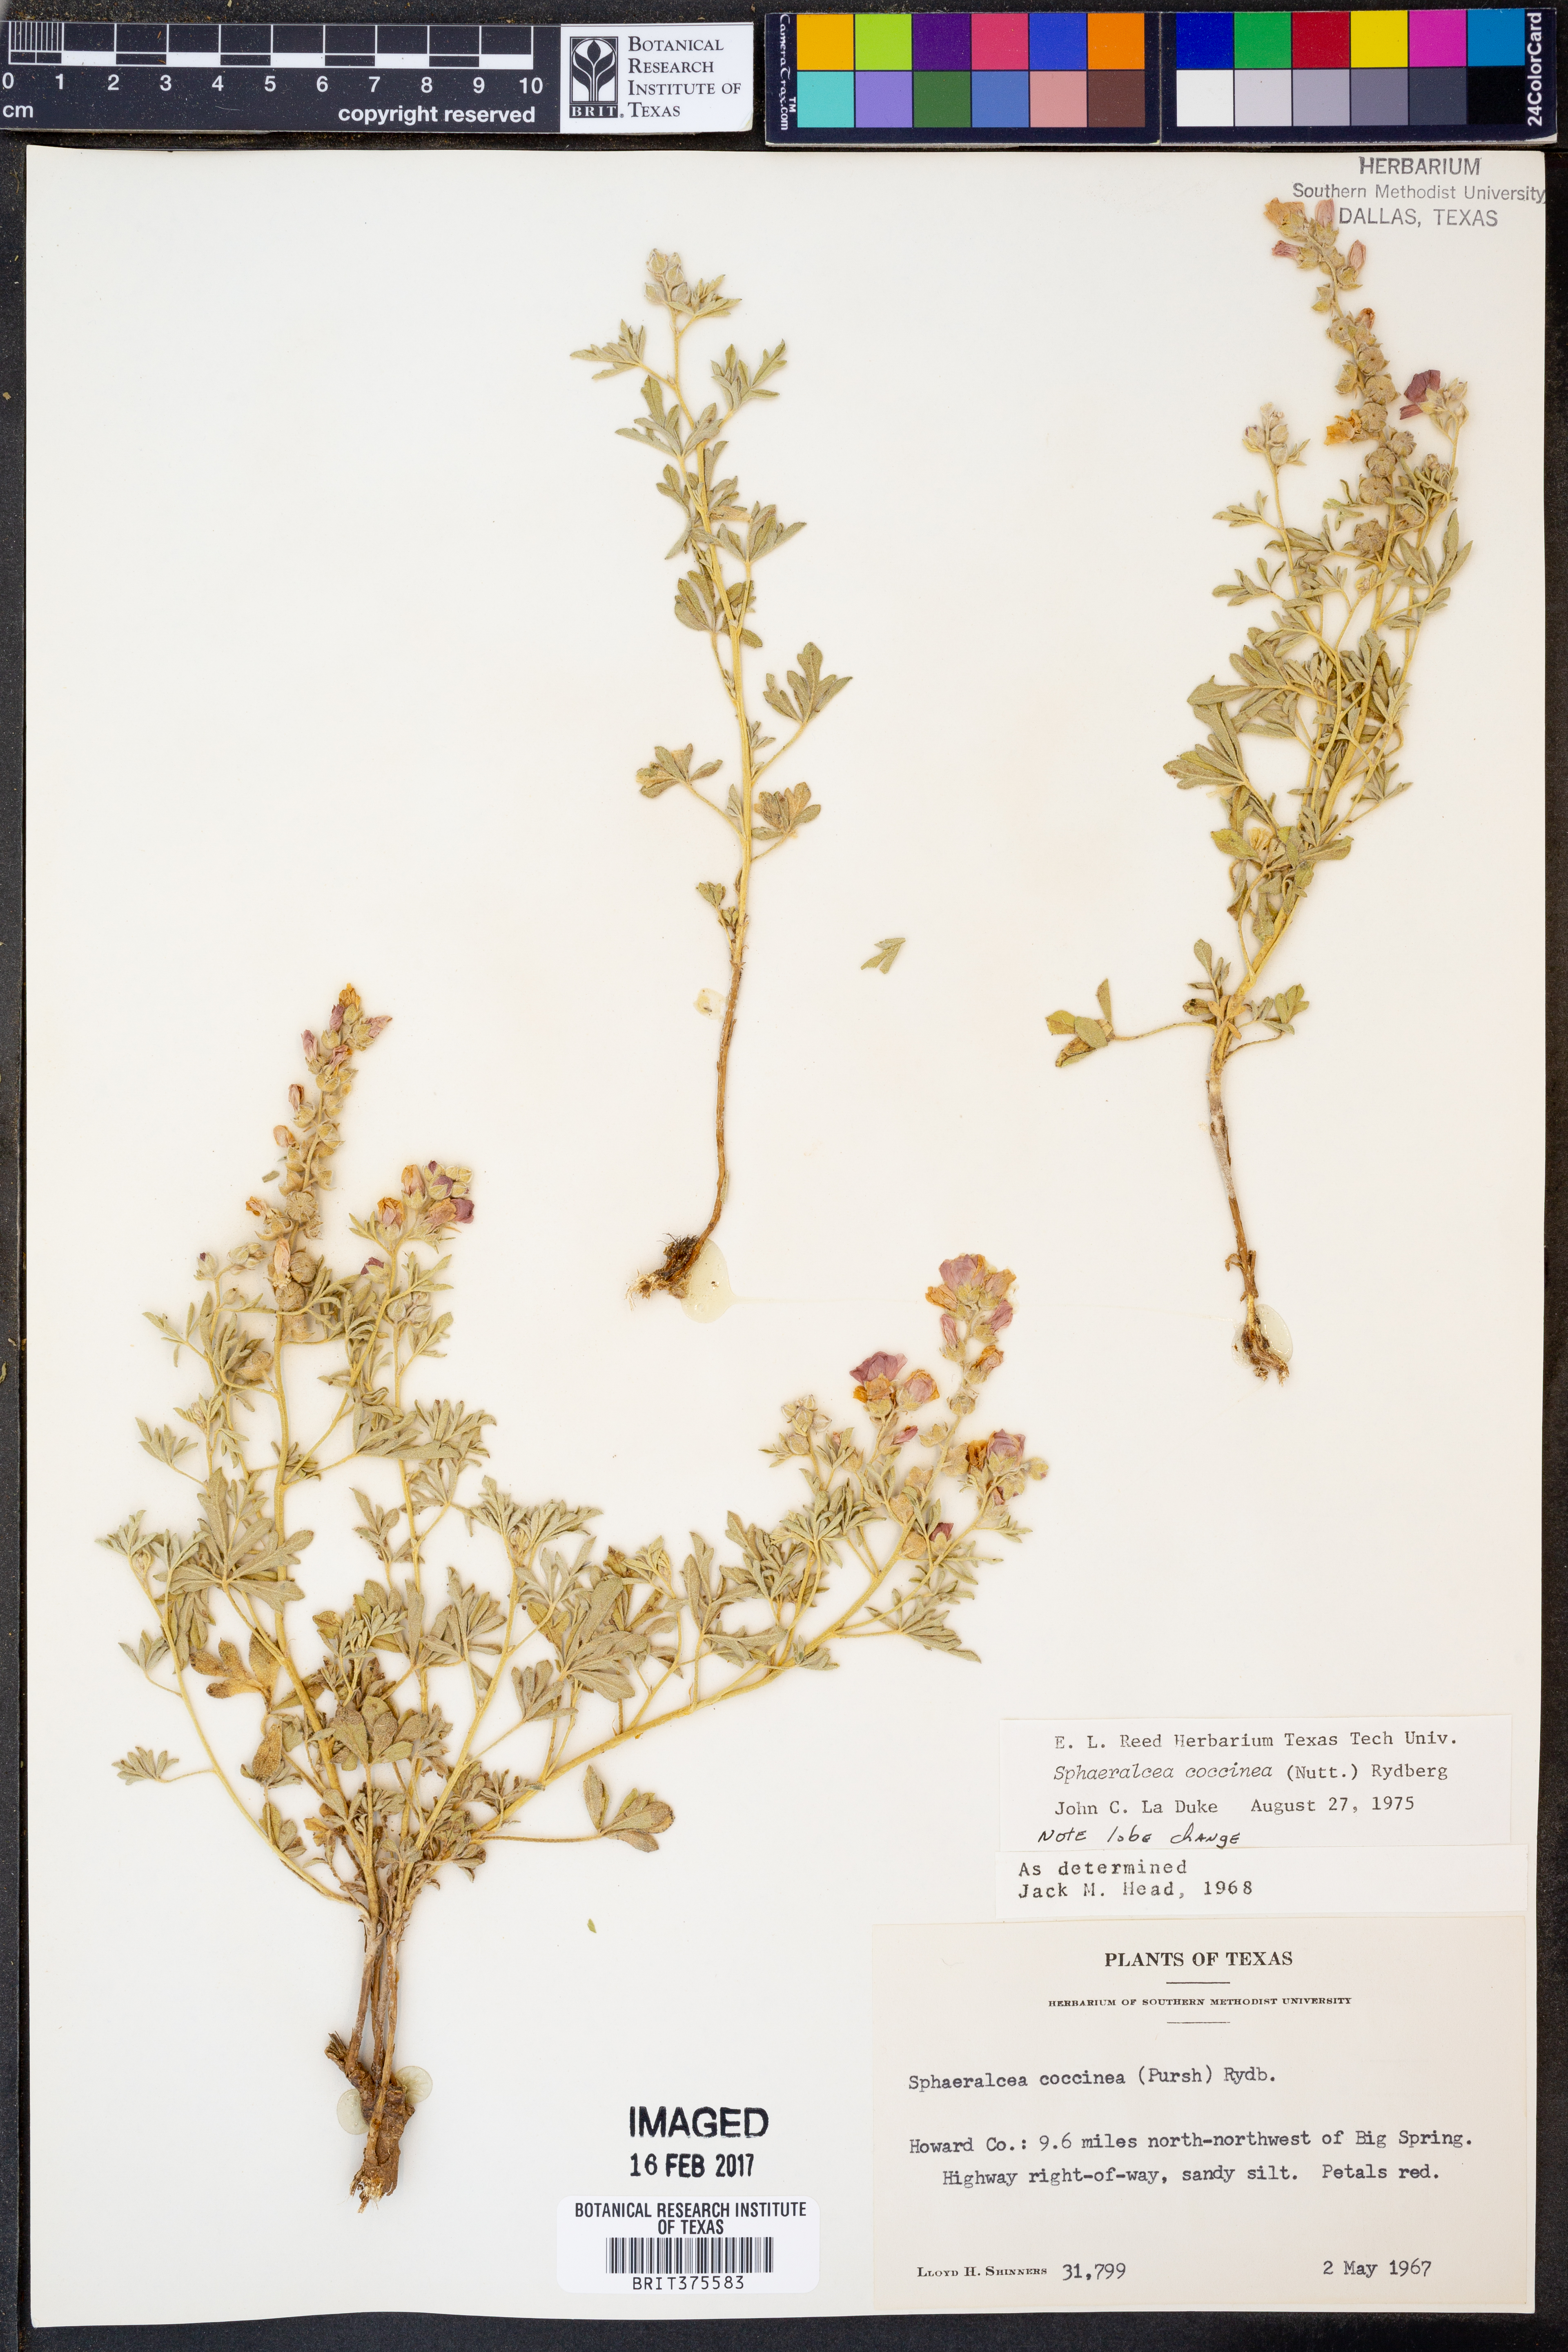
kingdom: Plantae
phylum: Tracheophyta
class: Magnoliopsida
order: Malvales
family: Malvaceae
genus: Sphaeralcea
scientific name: Sphaeralcea coccinea
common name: Moss-rose
